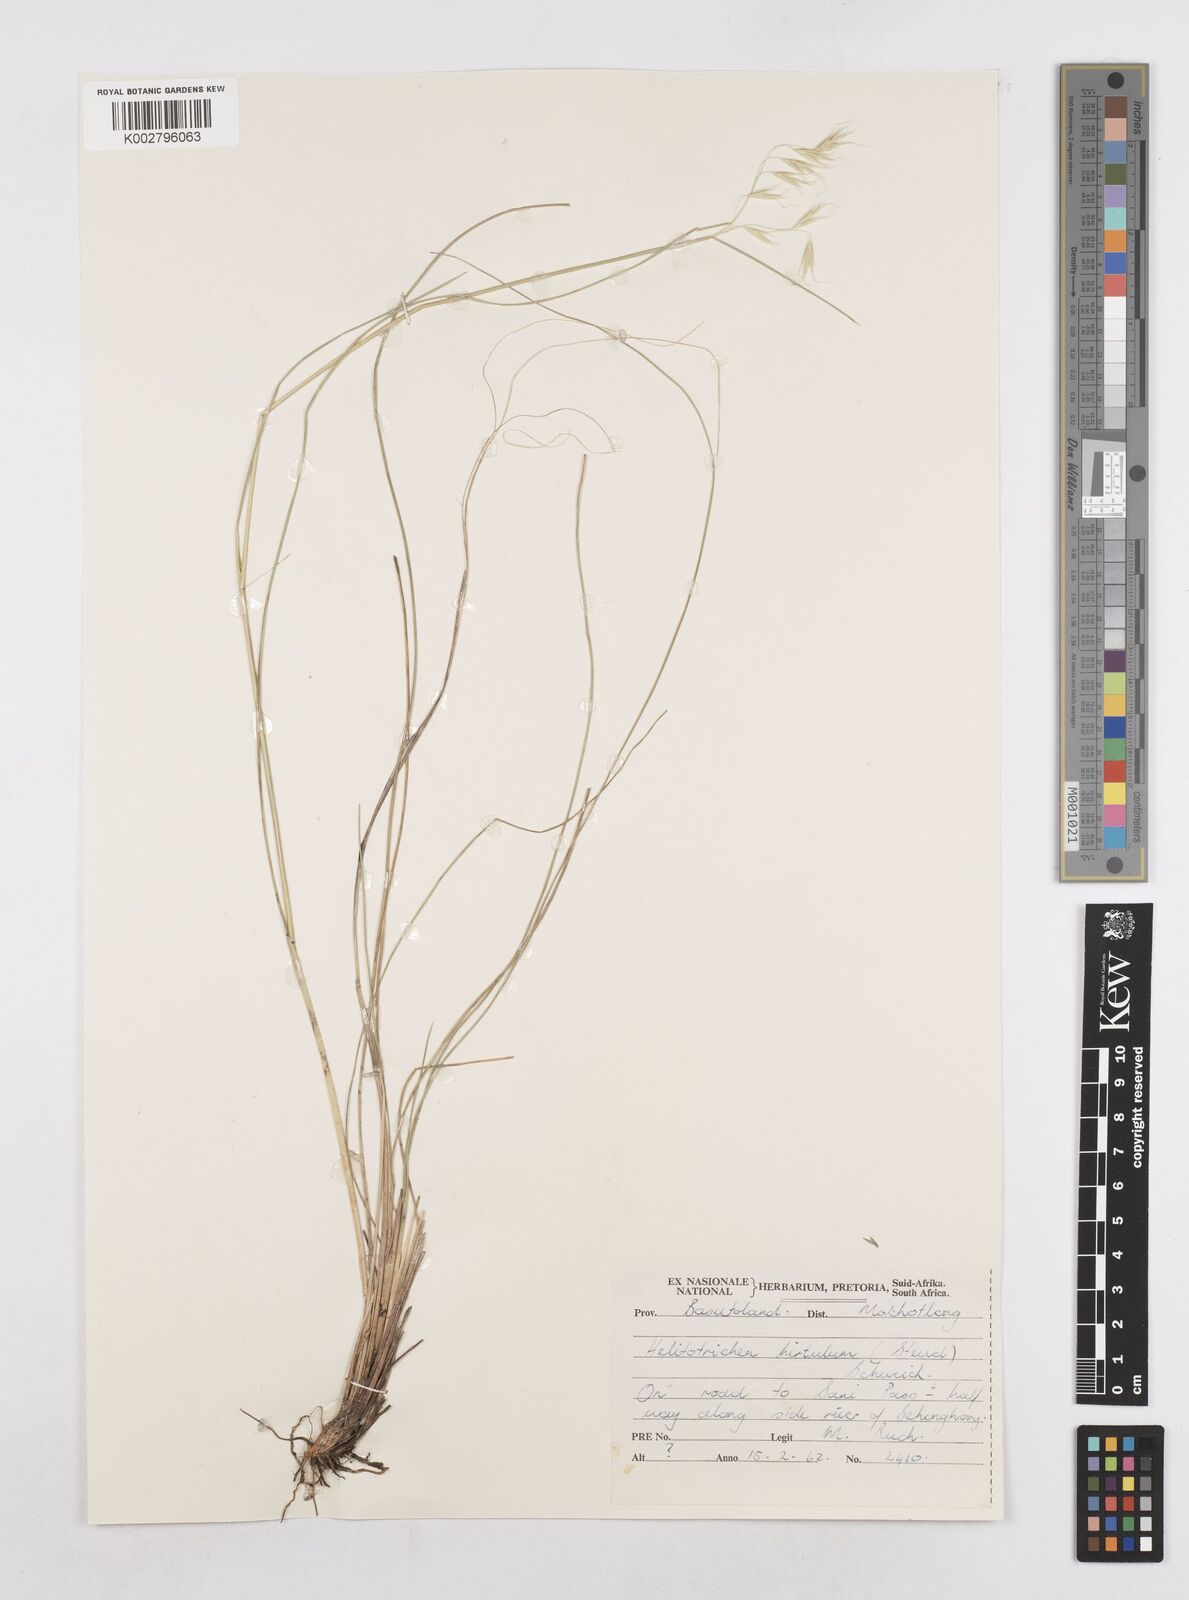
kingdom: Plantae
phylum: Tracheophyta
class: Liliopsida
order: Poales
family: Poaceae
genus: Trisetopsis
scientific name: Trisetopsis hirtula
